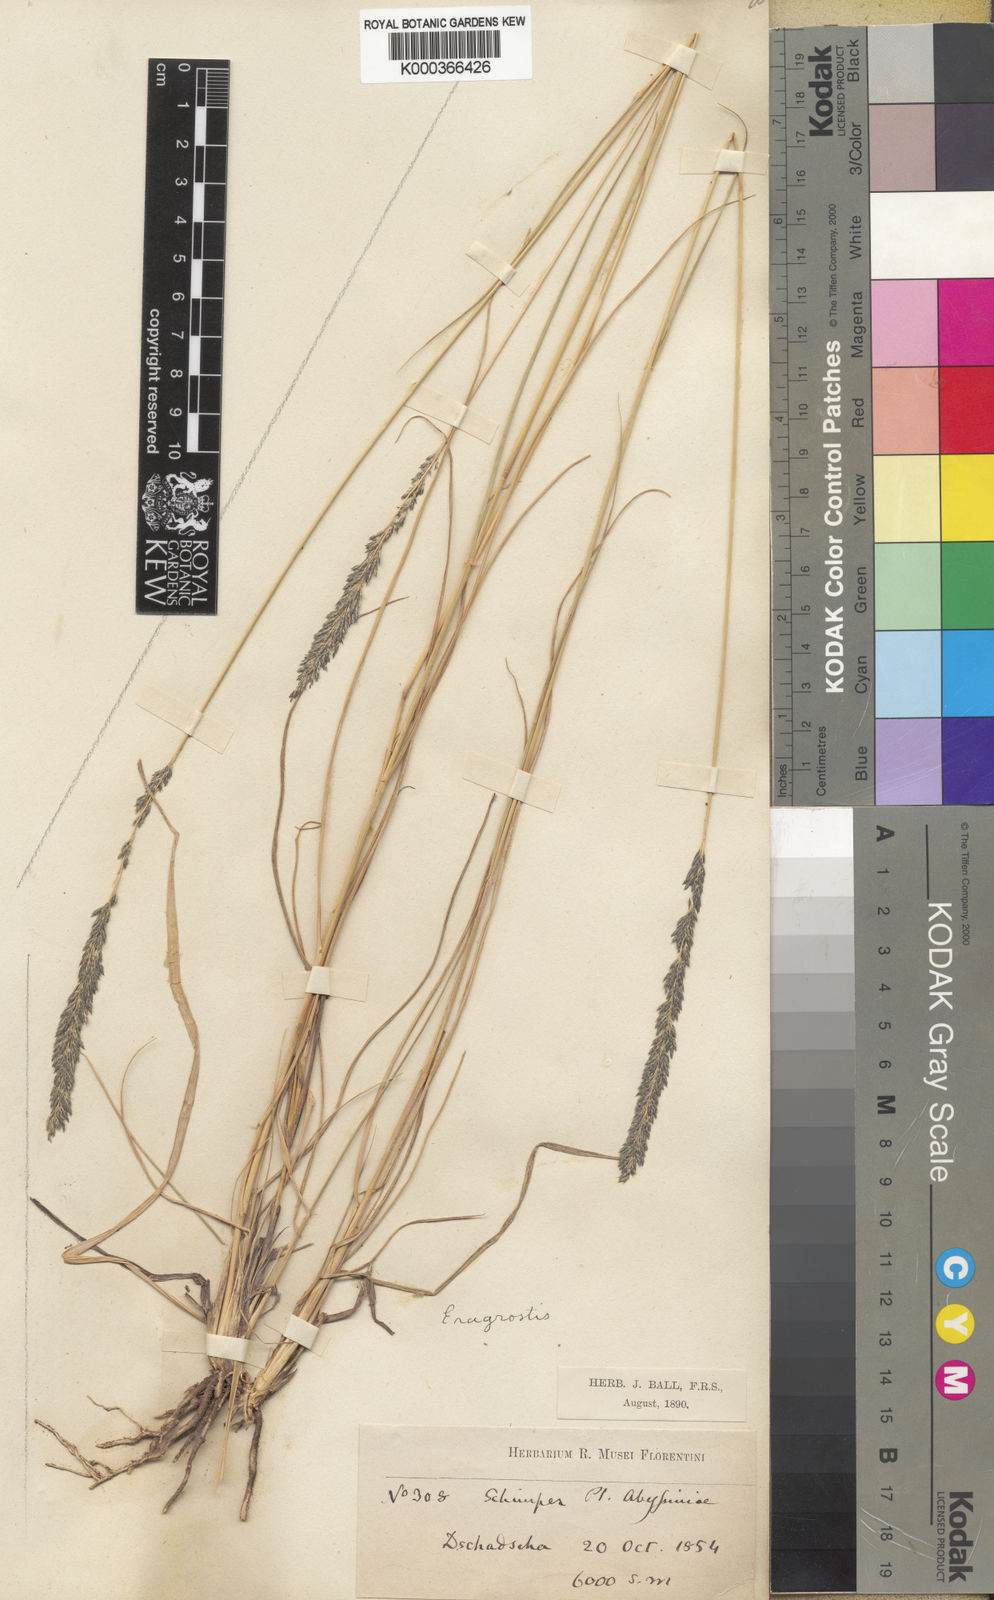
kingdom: Plantae
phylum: Tracheophyta
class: Liliopsida
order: Poales
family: Poaceae
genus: Eragrostis
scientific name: Eragrostis braunii
